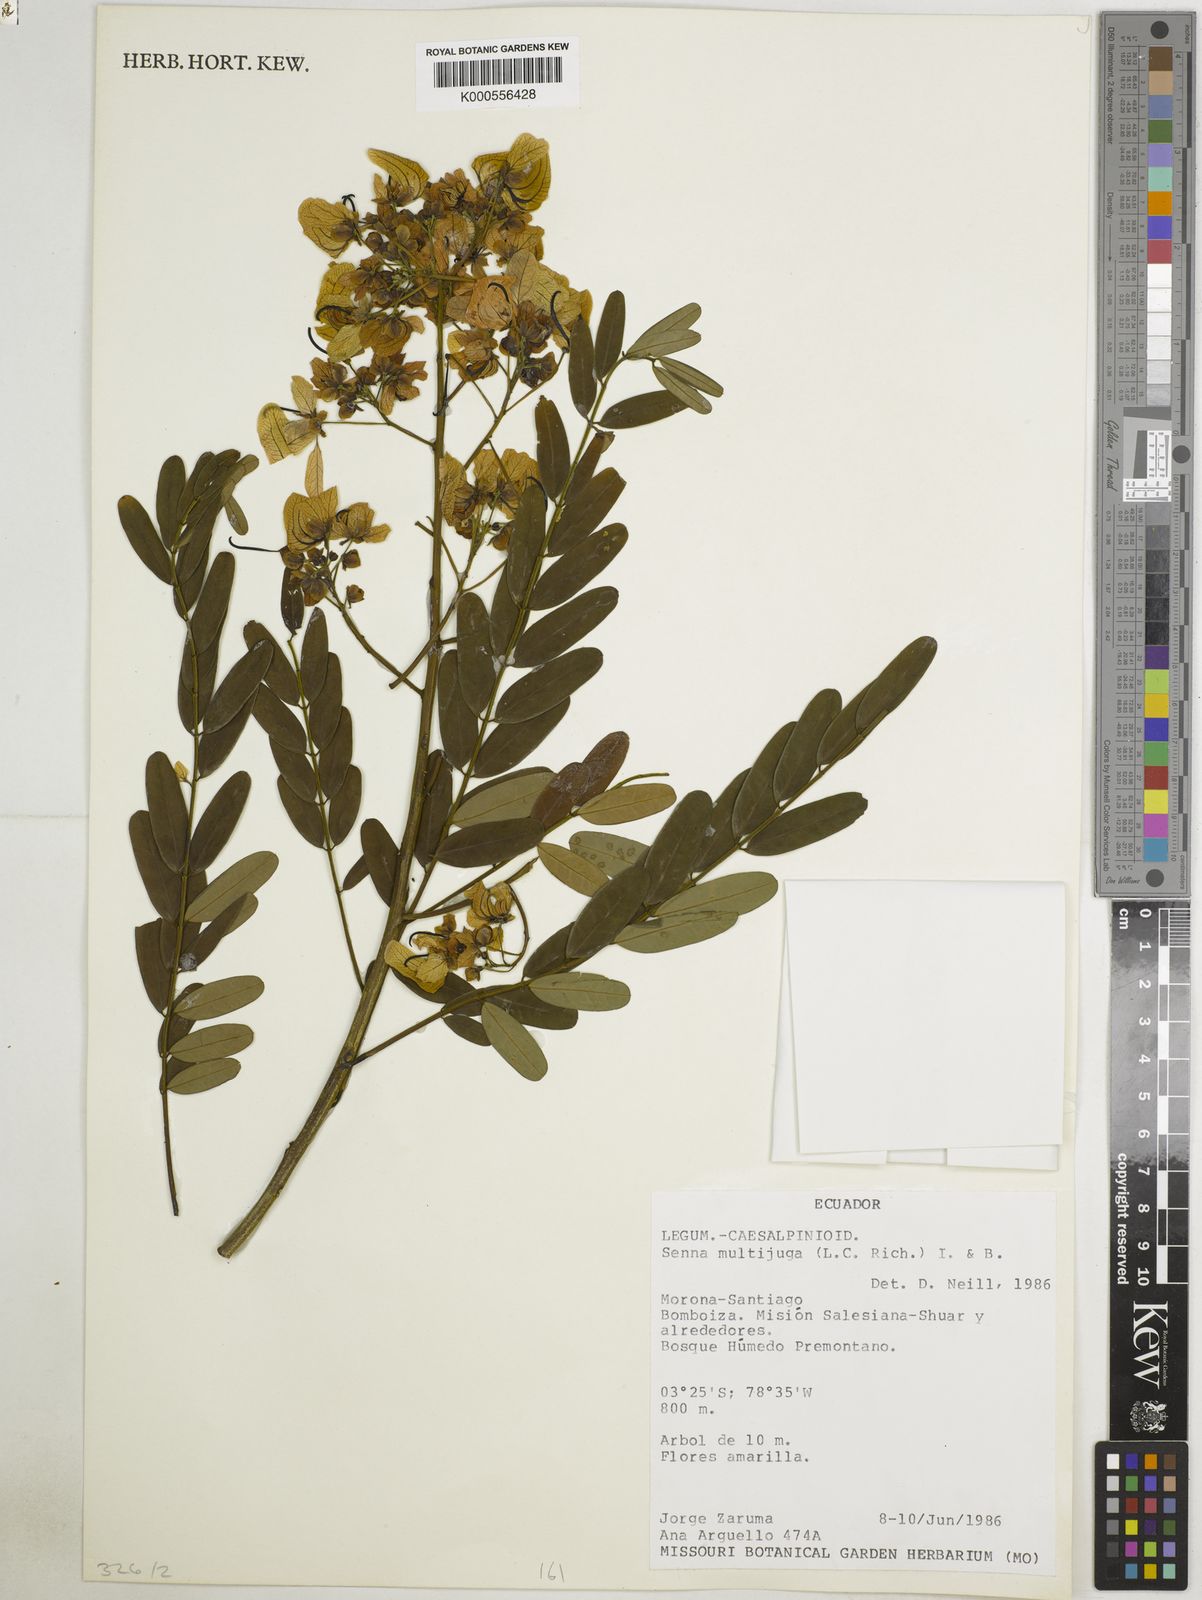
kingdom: Plantae
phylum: Tracheophyta
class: Magnoliopsida
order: Fabales
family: Fabaceae
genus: Senna
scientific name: Senna multijuga
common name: False sicklepod
